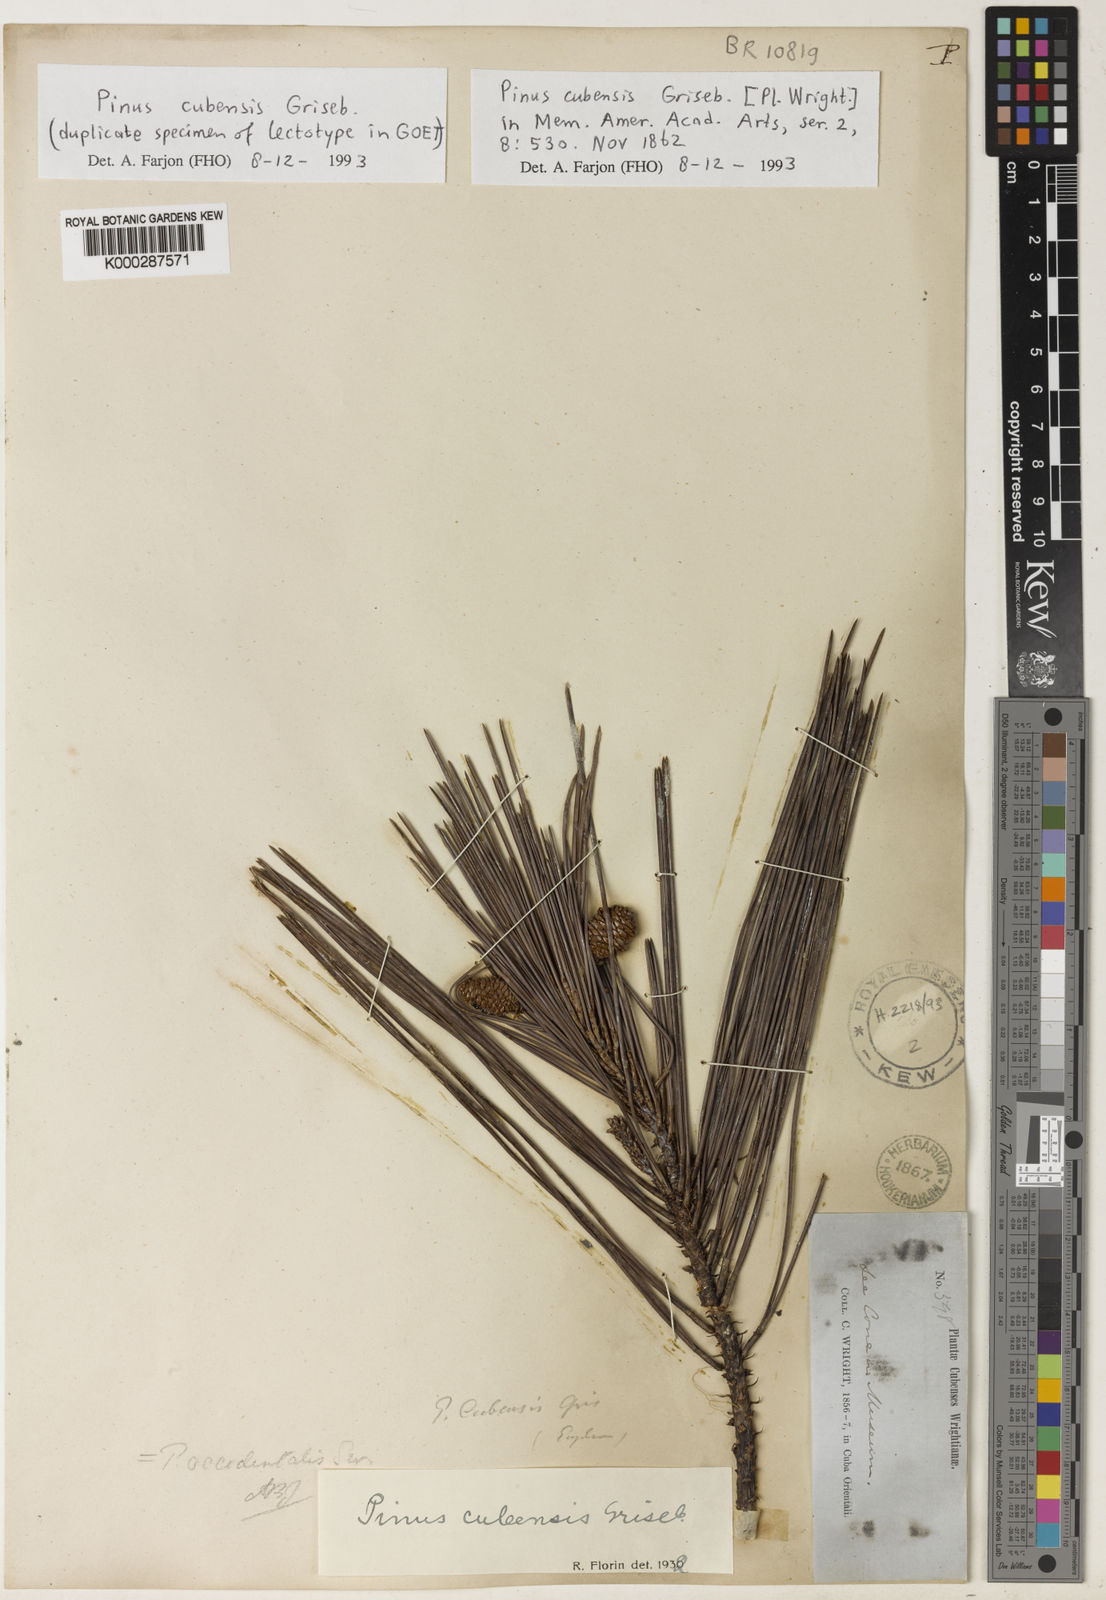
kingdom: Plantae
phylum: Tracheophyta
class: Pinopsida
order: Pinales
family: Pinaceae
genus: Pinus
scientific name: Pinus cubensis
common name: Cuban pine
